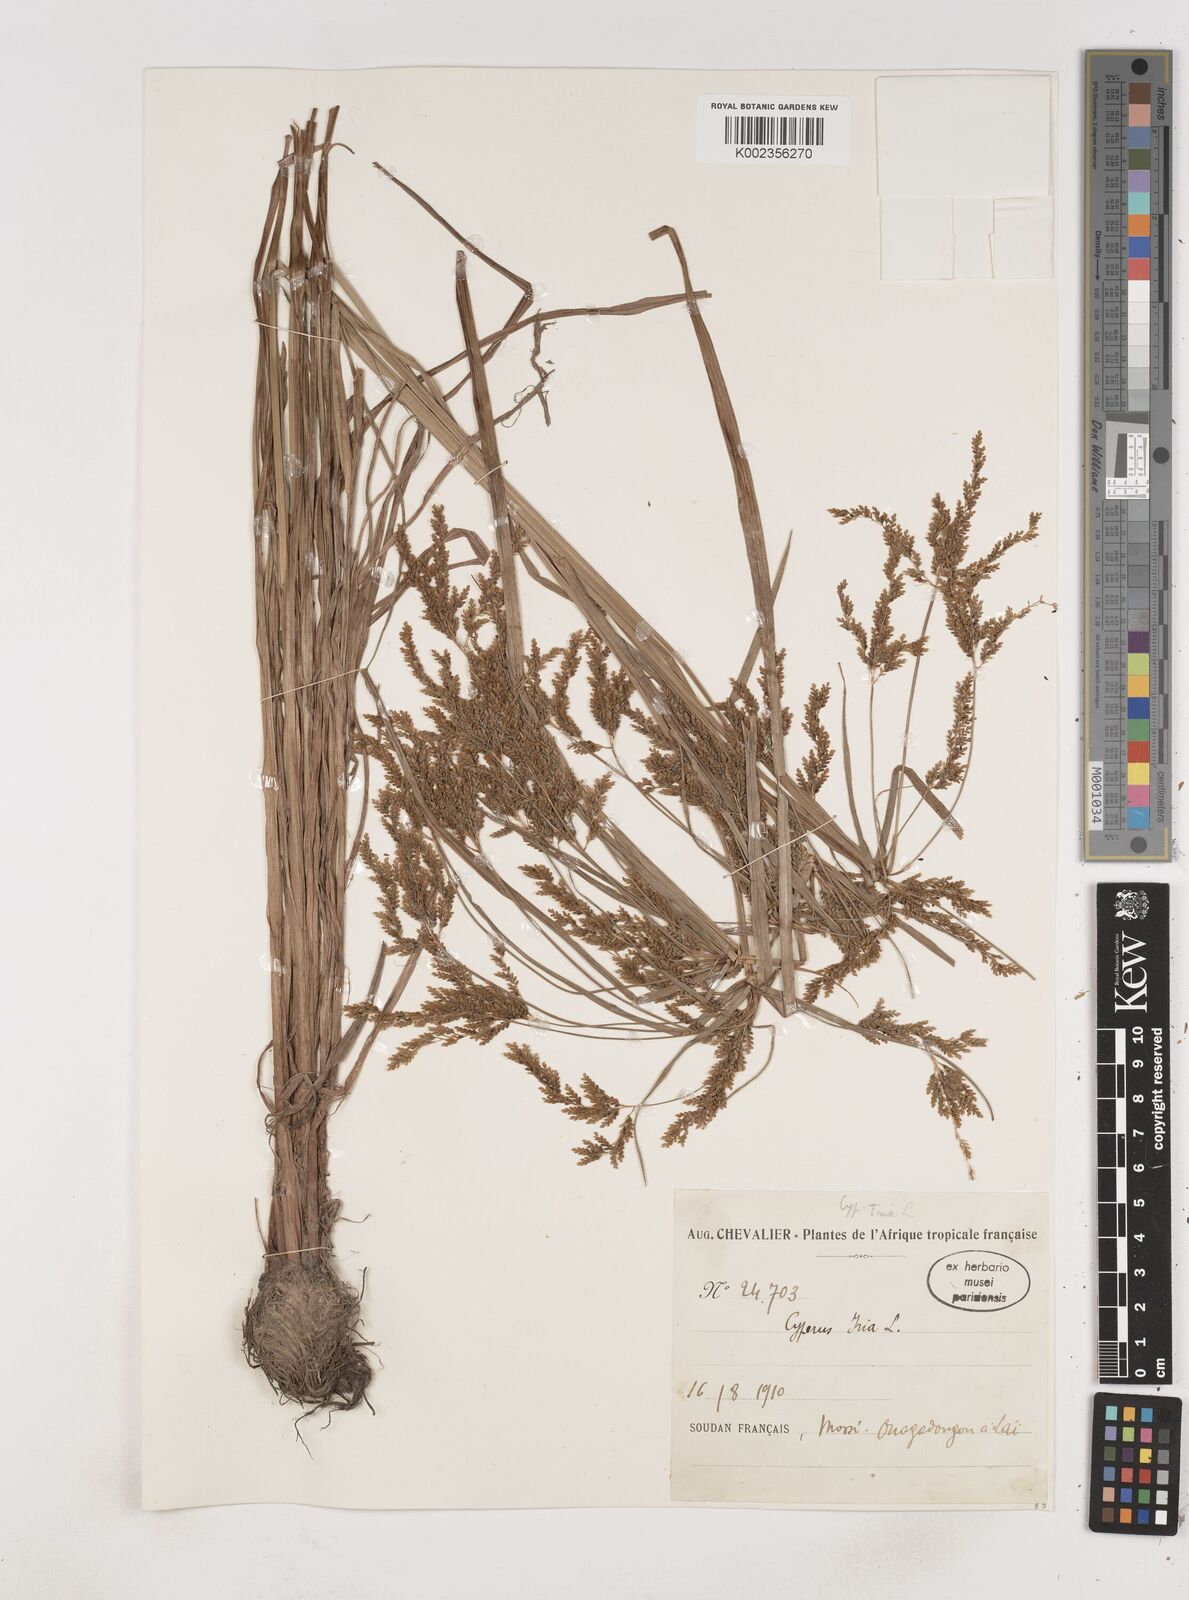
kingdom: Plantae
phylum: Tracheophyta
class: Liliopsida
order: Poales
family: Cyperaceae
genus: Cyperus
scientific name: Cyperus iria
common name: Ricefield flatsedge
